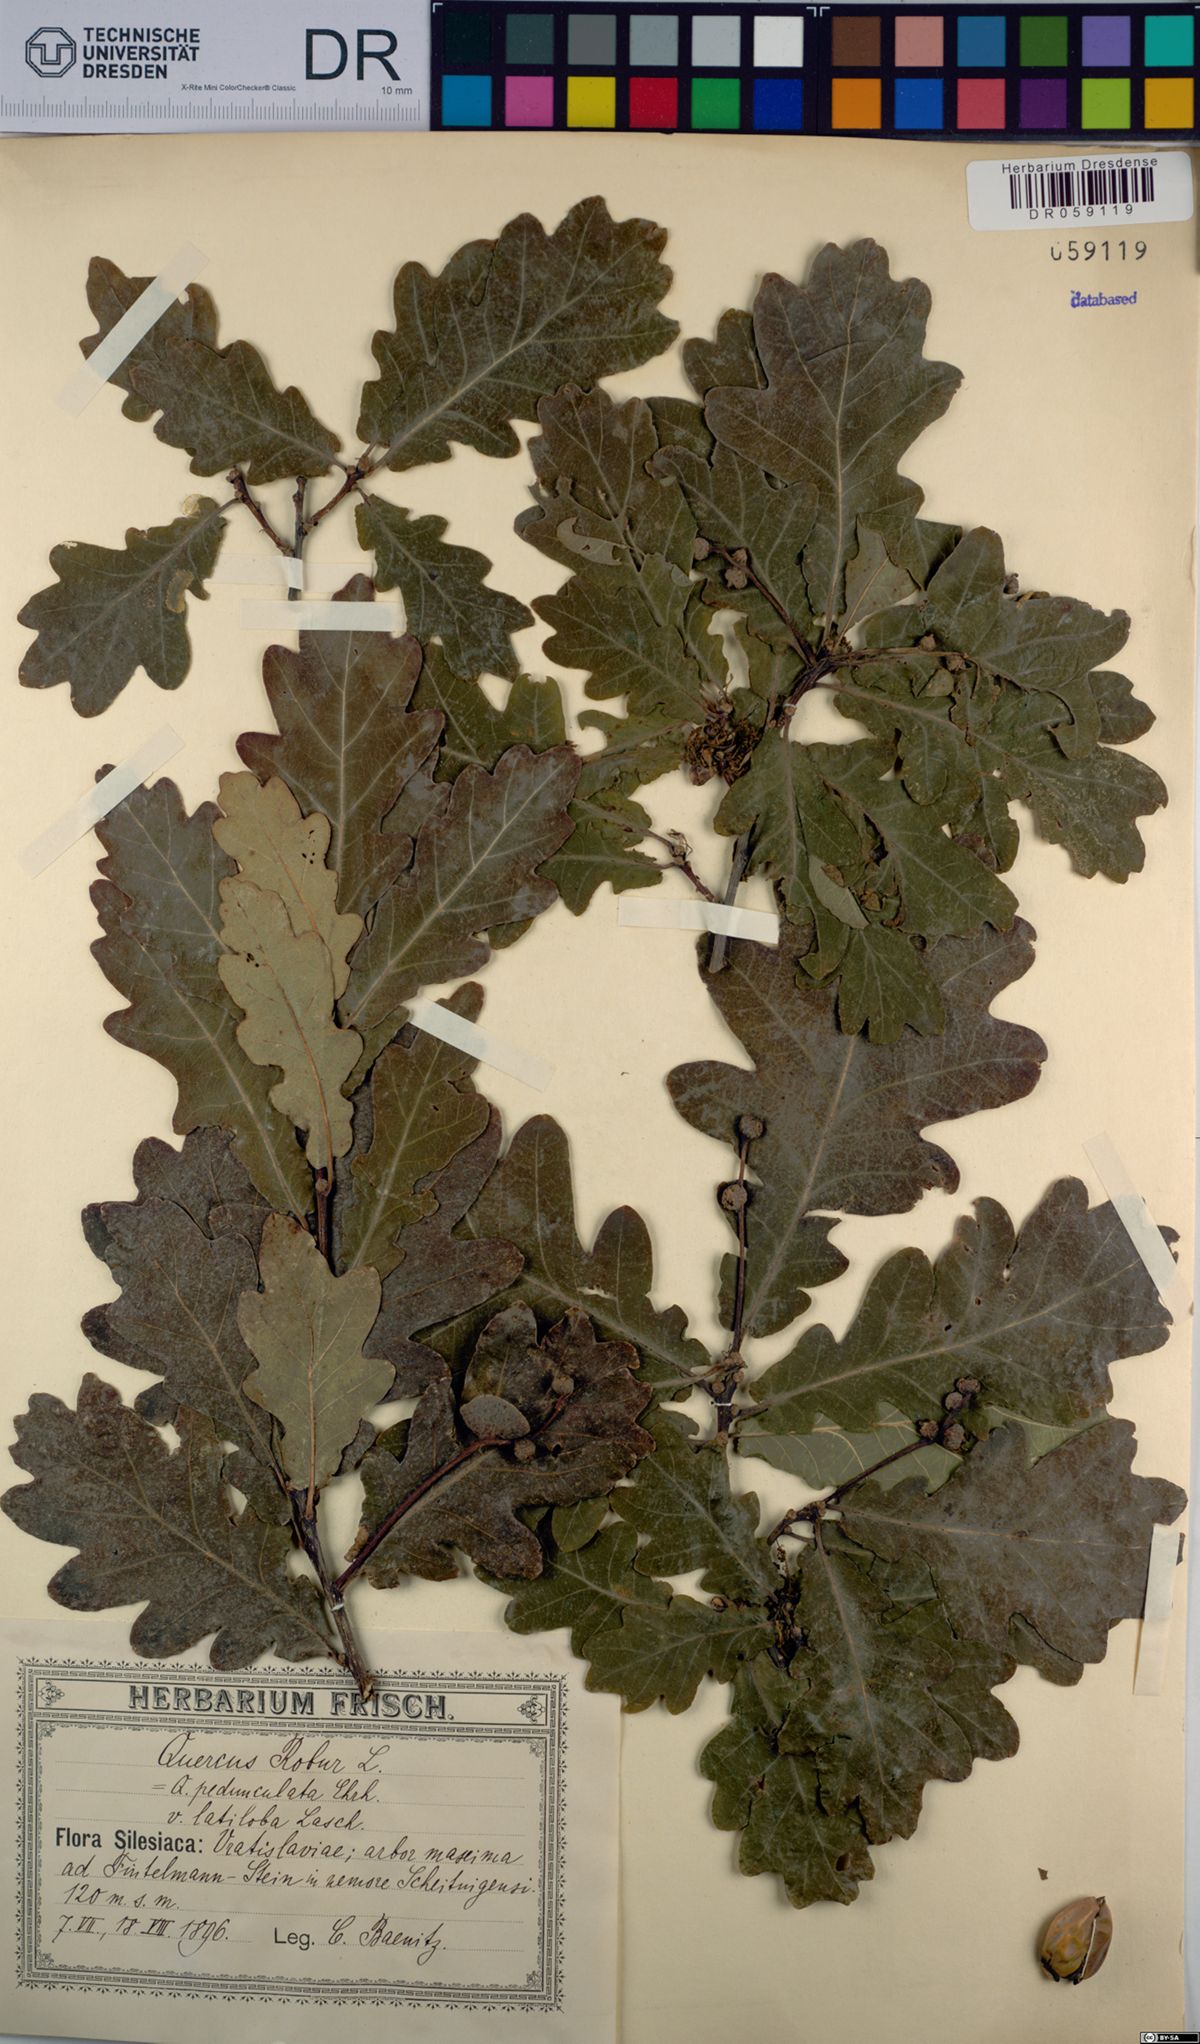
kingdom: Plantae
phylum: Tracheophyta
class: Magnoliopsida
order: Fagales
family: Fagaceae
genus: Quercus
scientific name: Quercus robur
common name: Pedunculate oak
